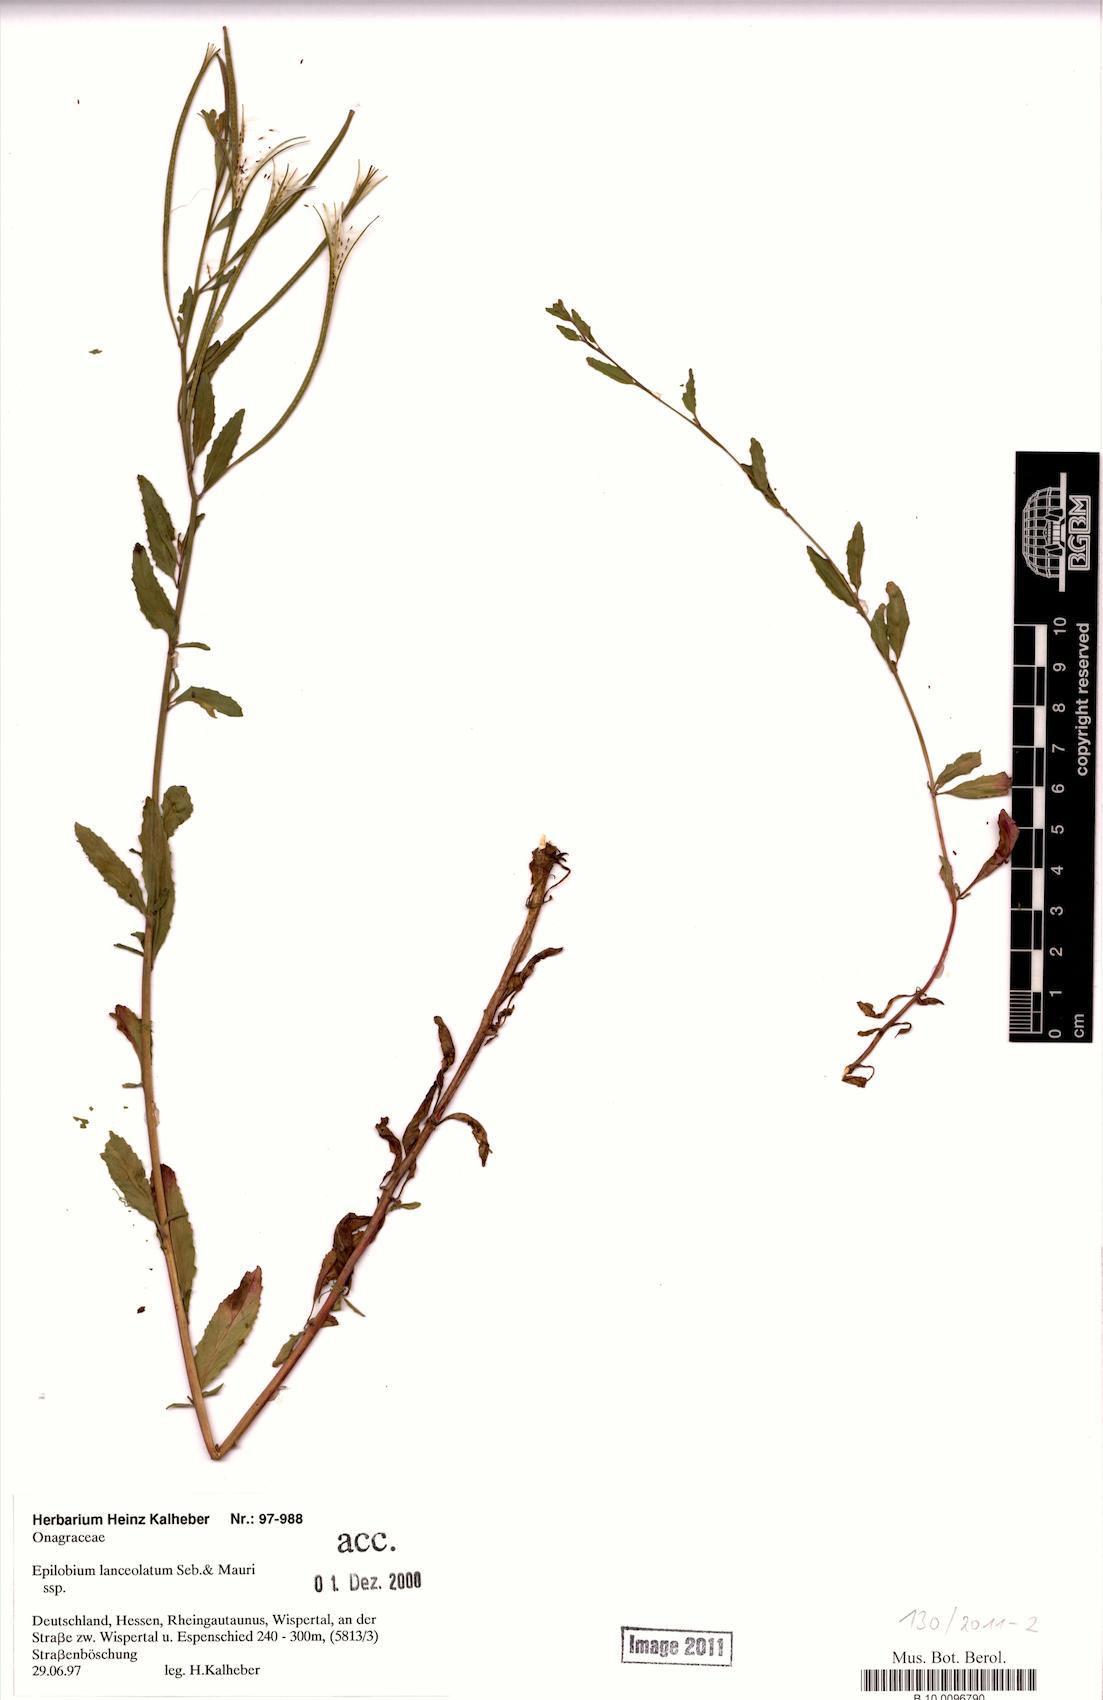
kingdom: Plantae
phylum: Tracheophyta
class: Magnoliopsida
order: Myrtales
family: Onagraceae
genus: Epilobium
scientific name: Epilobium lanceolatum
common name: Spear-leaved willowherb
